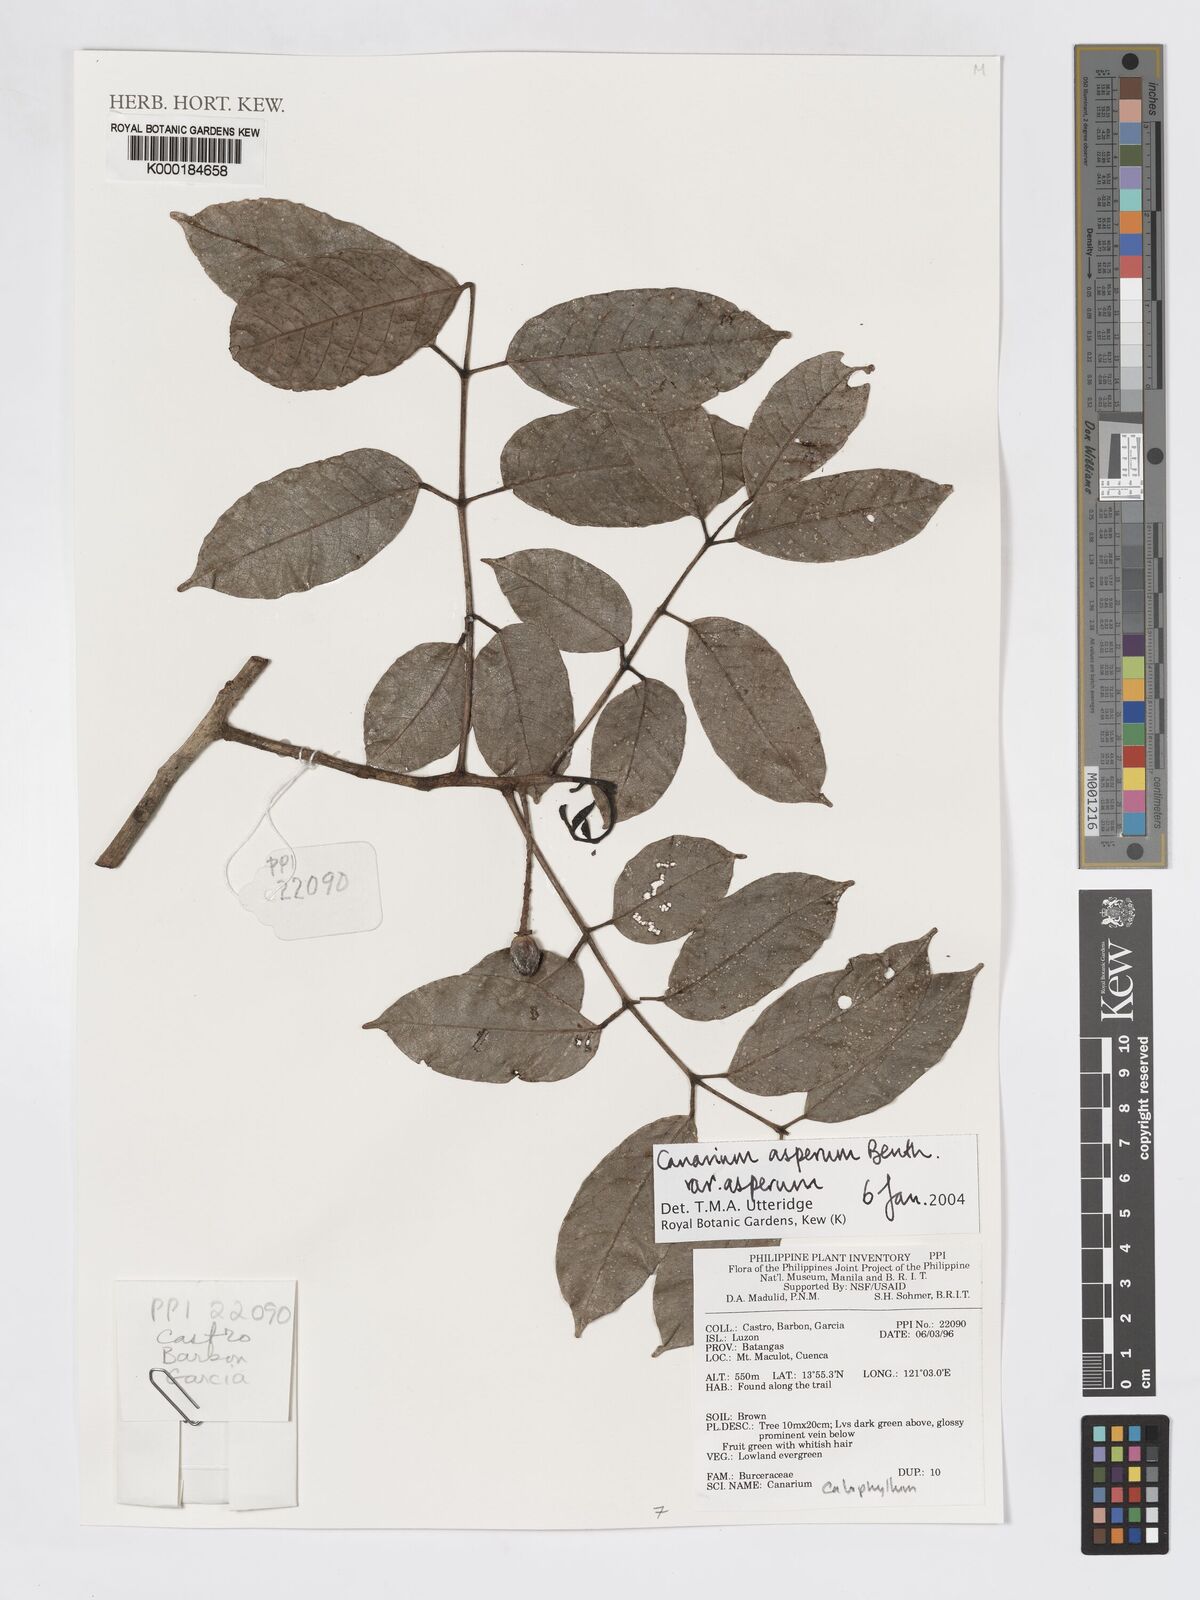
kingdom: Plantae
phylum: Tracheophyta
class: Magnoliopsida
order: Sapindales
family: Burseraceae
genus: Canarium
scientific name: Canarium asperum
